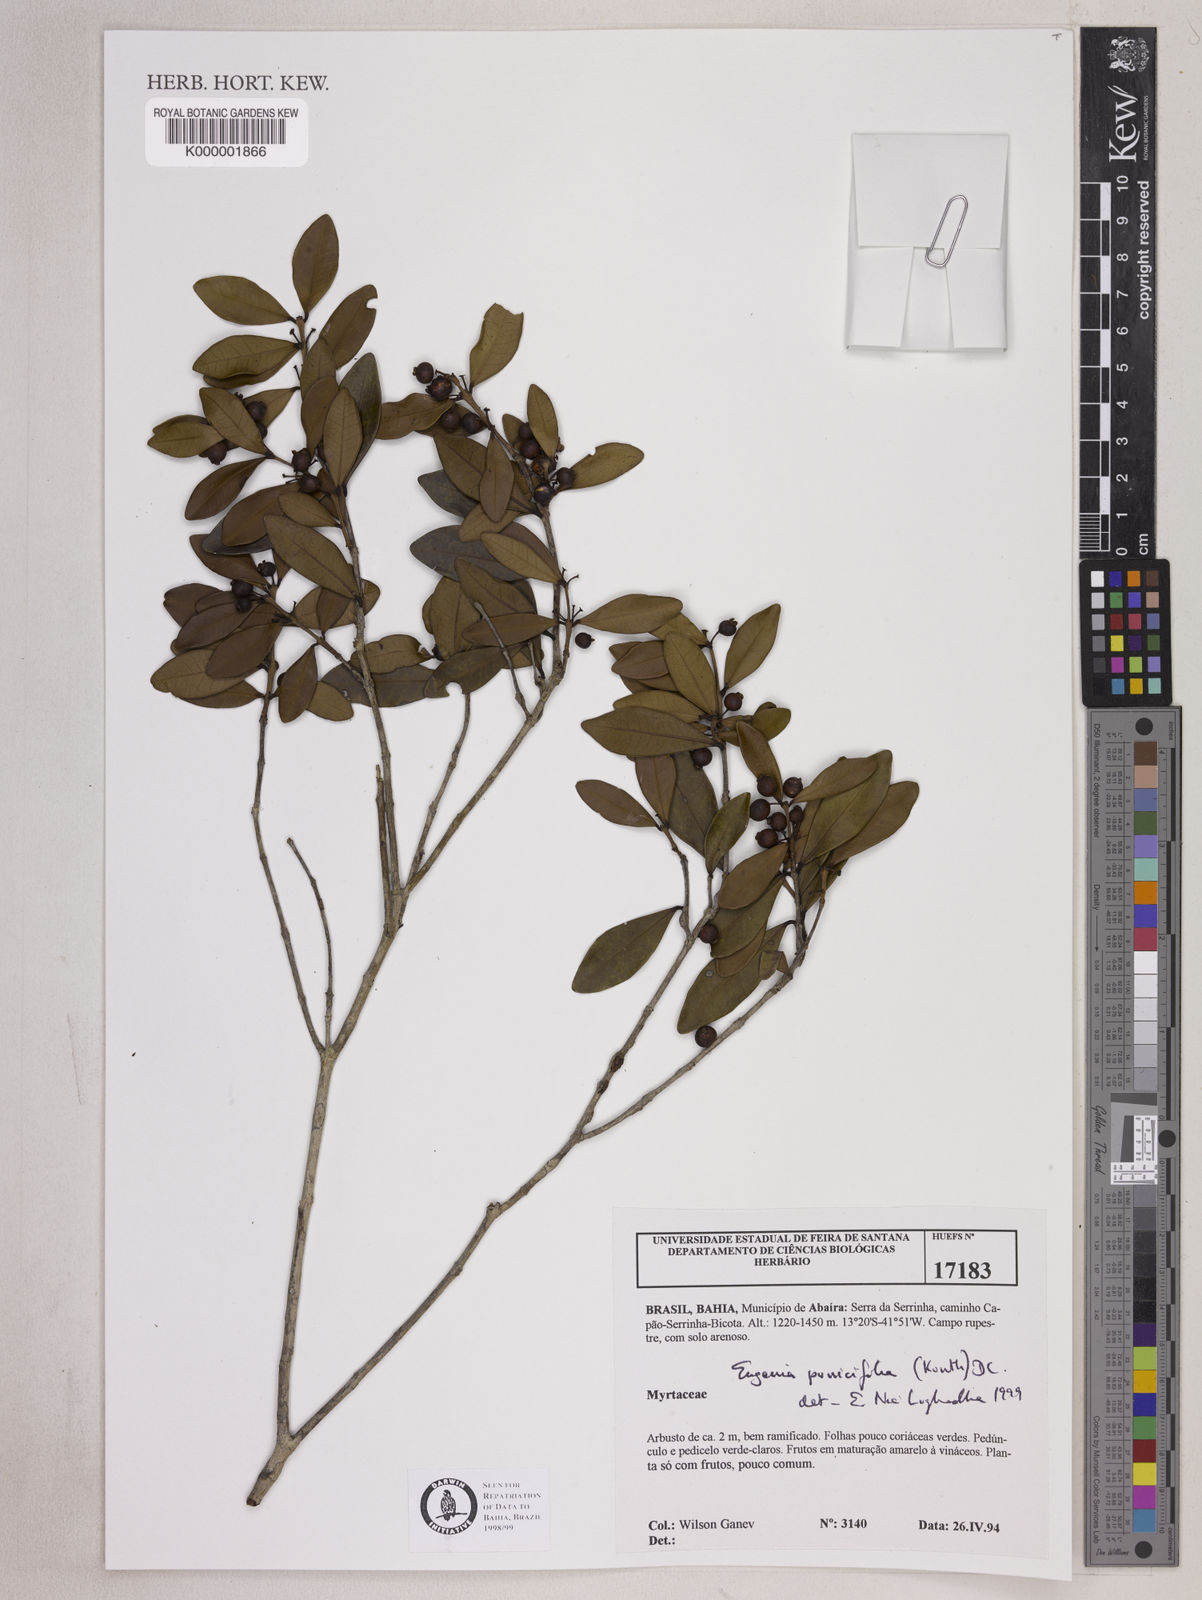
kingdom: Plantae
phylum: Tracheophyta
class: Magnoliopsida
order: Myrtales
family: Myrtaceae
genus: Eugenia
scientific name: Eugenia punicifolia
